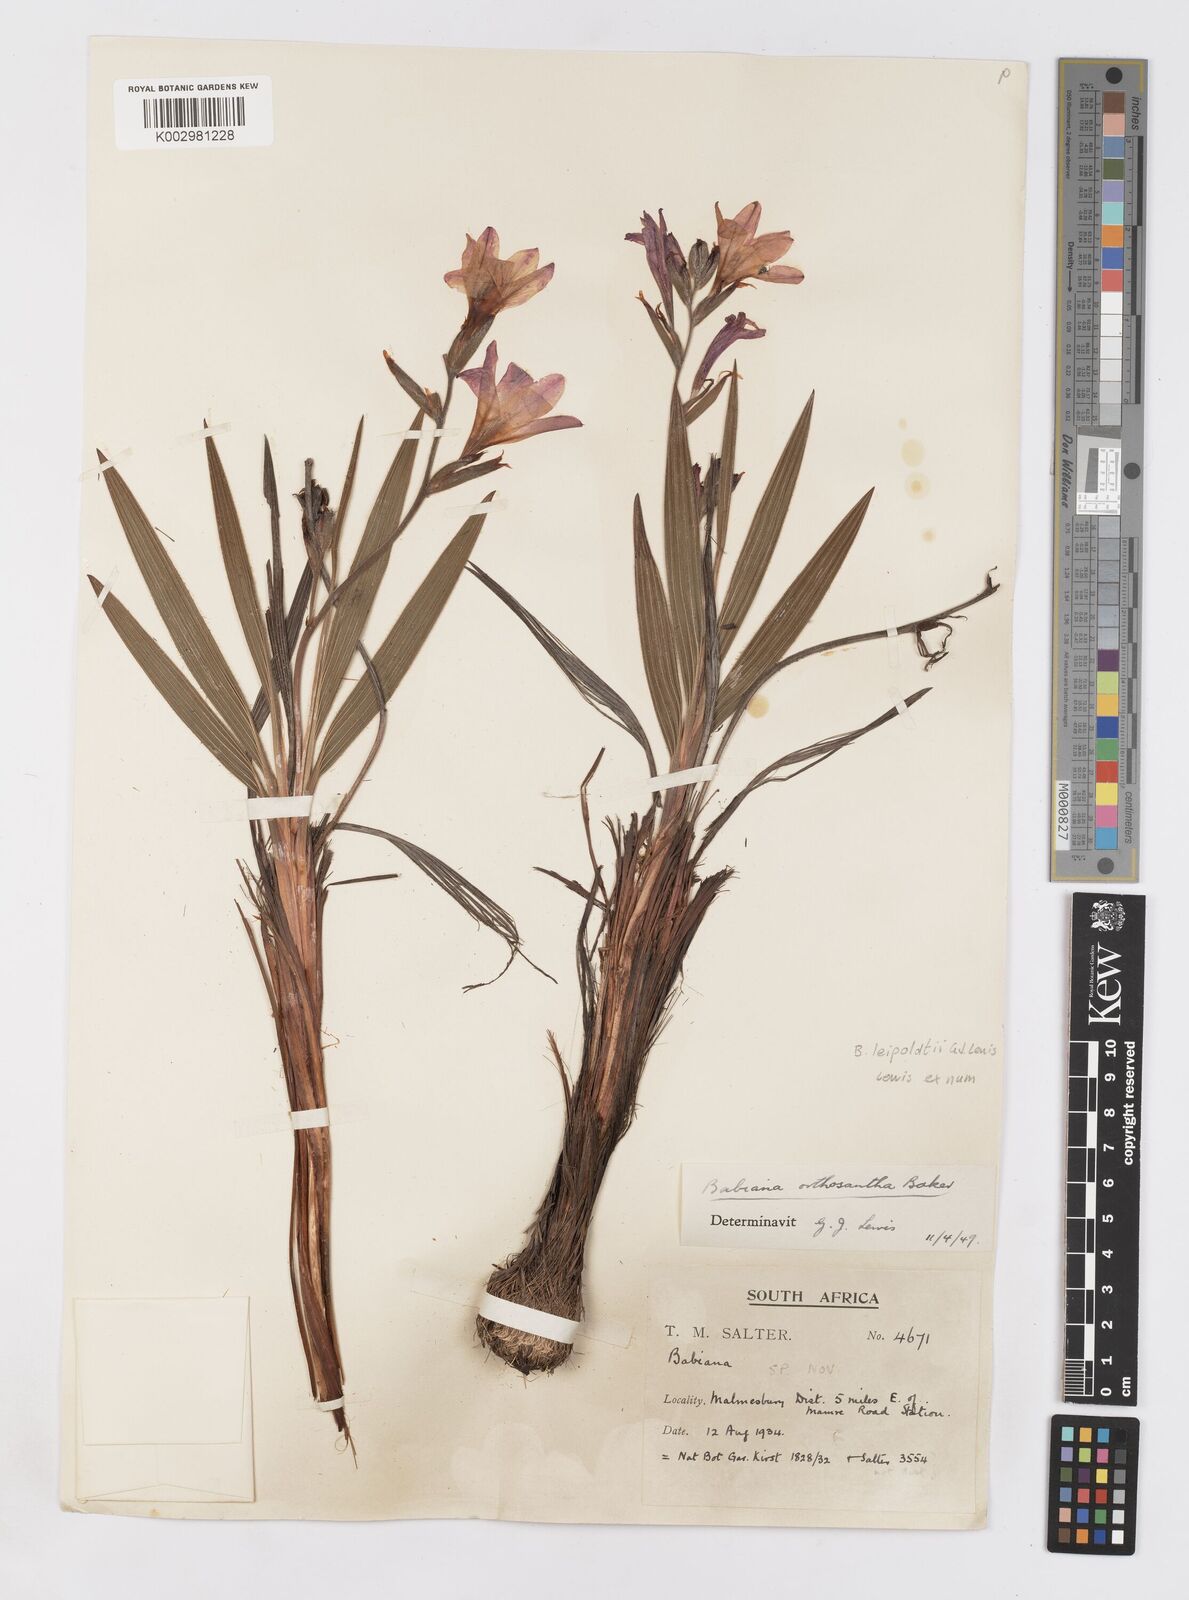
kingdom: Plantae
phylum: Tracheophyta
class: Liliopsida
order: Asparagales
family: Iridaceae
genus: Babiana
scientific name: Babiana leipoldtii
